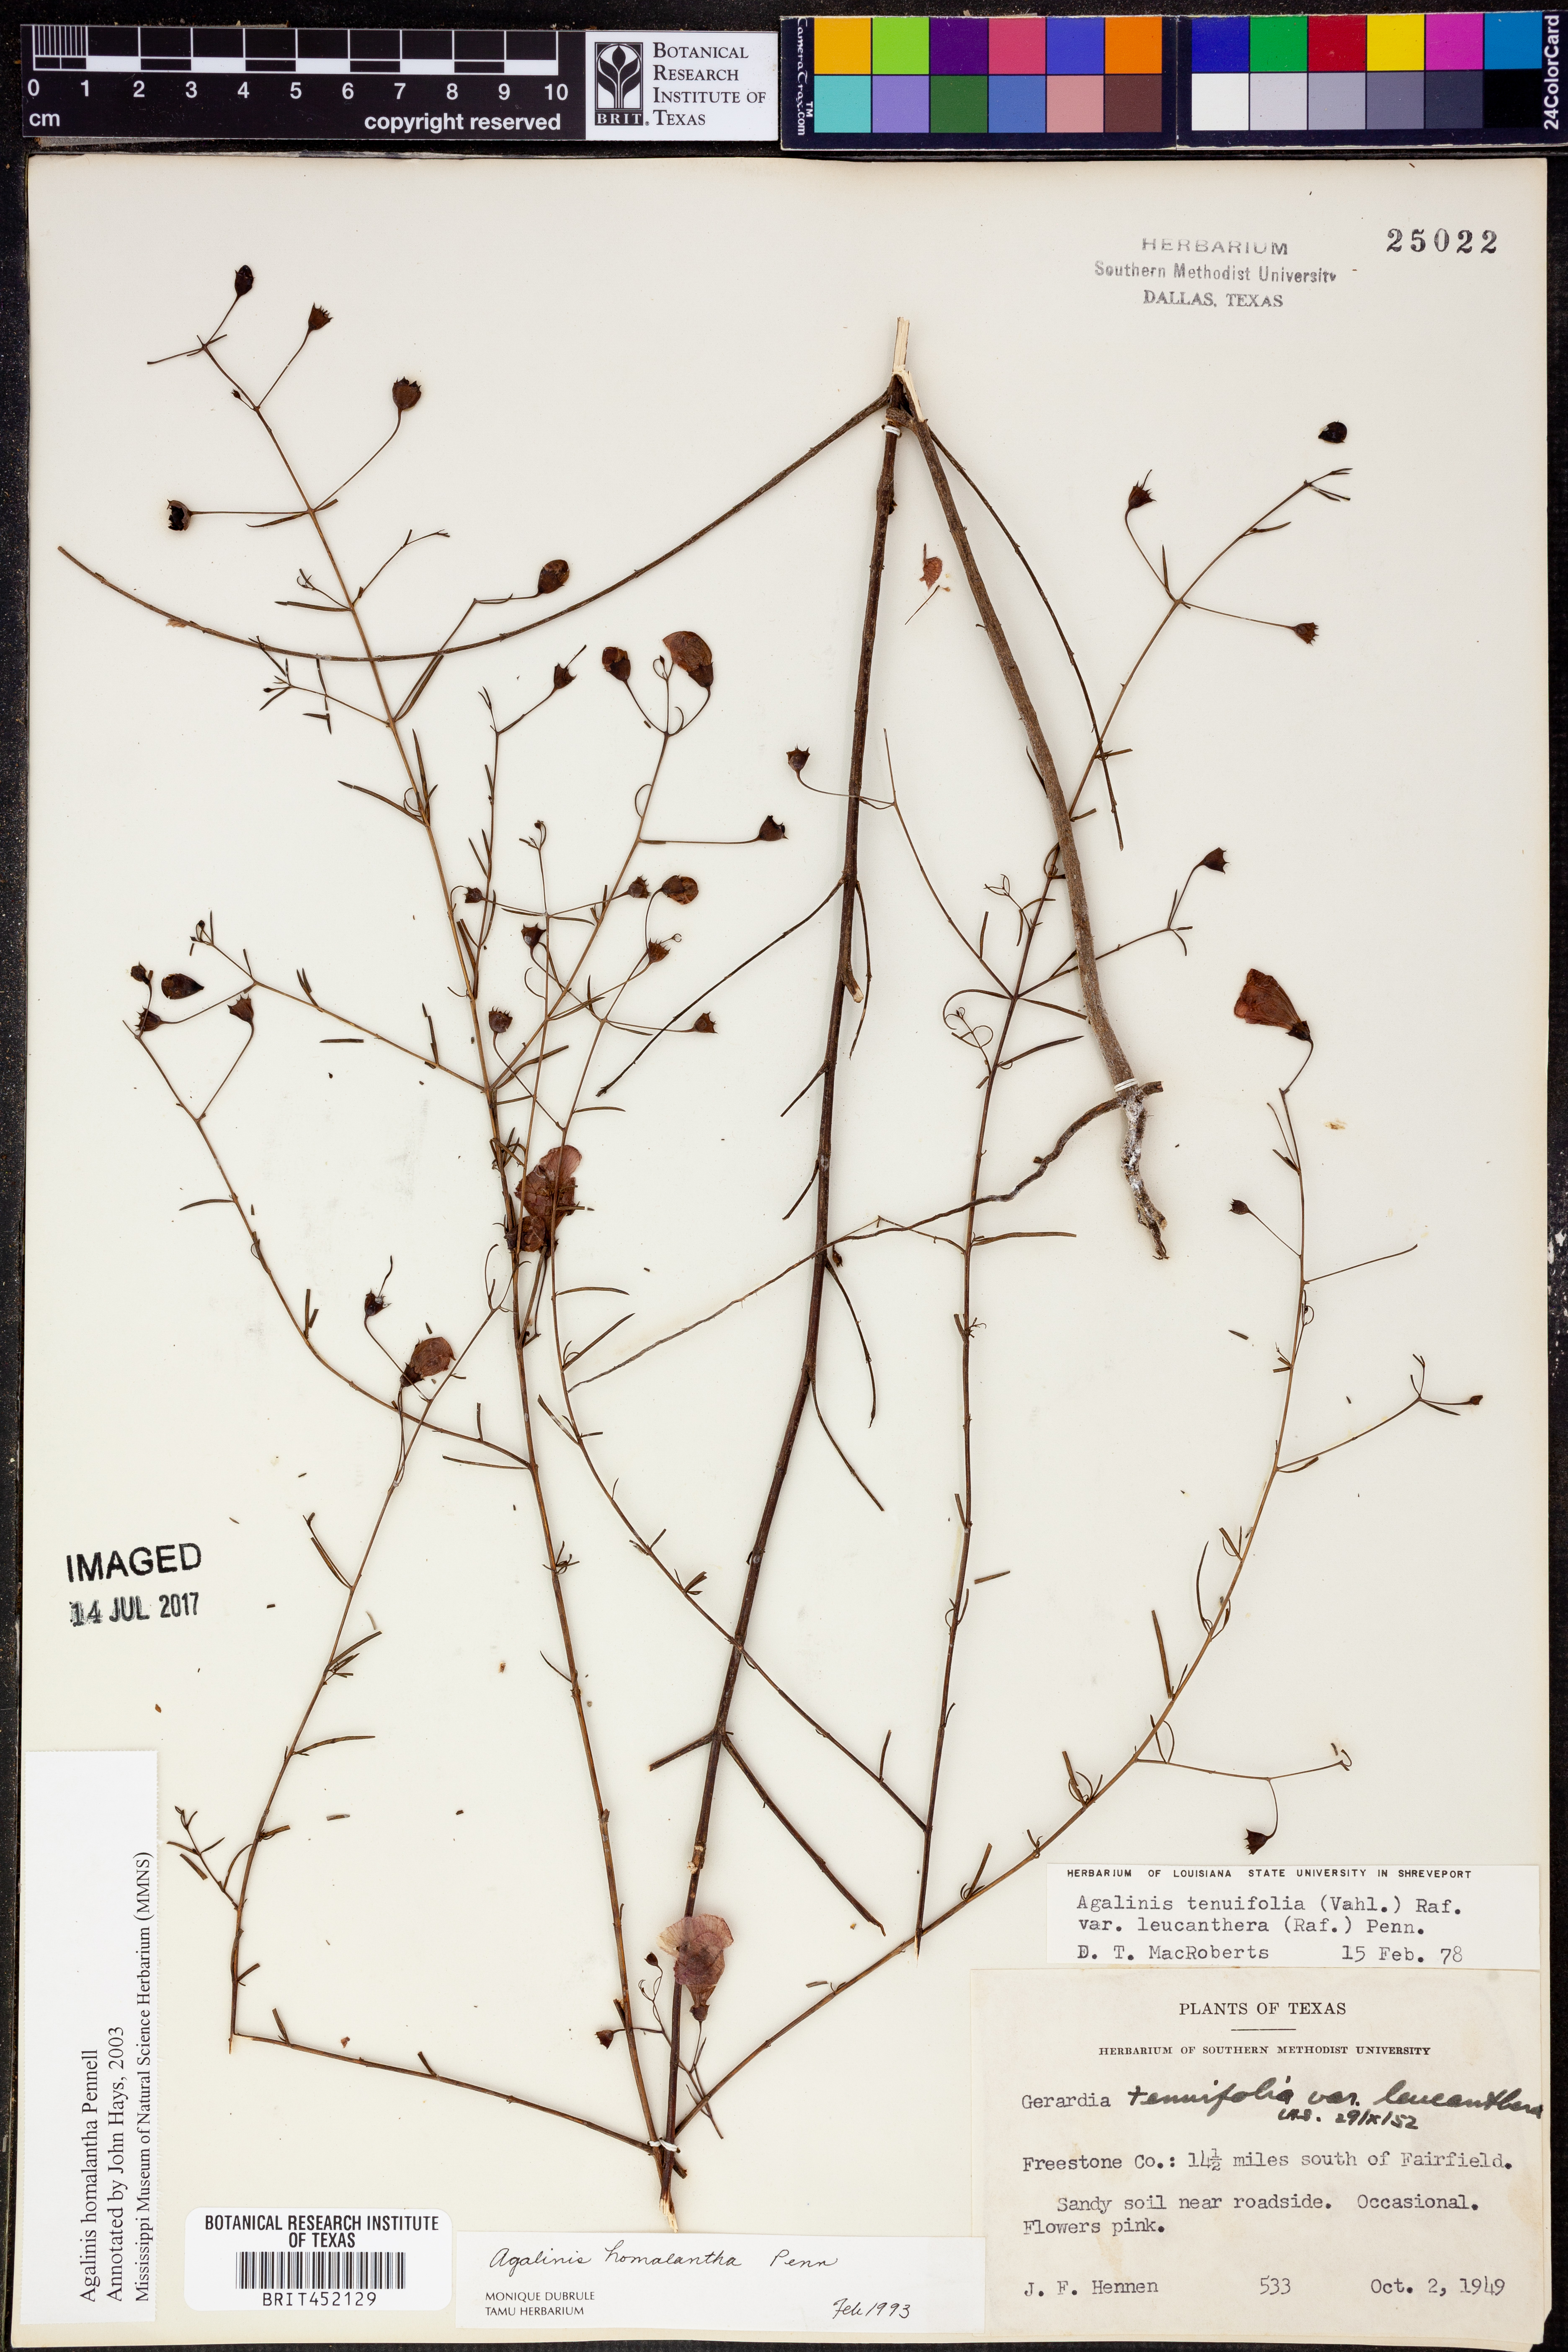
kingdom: Plantae
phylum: Tracheophyta
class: Magnoliopsida
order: Lamiales
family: Orobanchaceae
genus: Agalinis
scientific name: Agalinis homalantha
